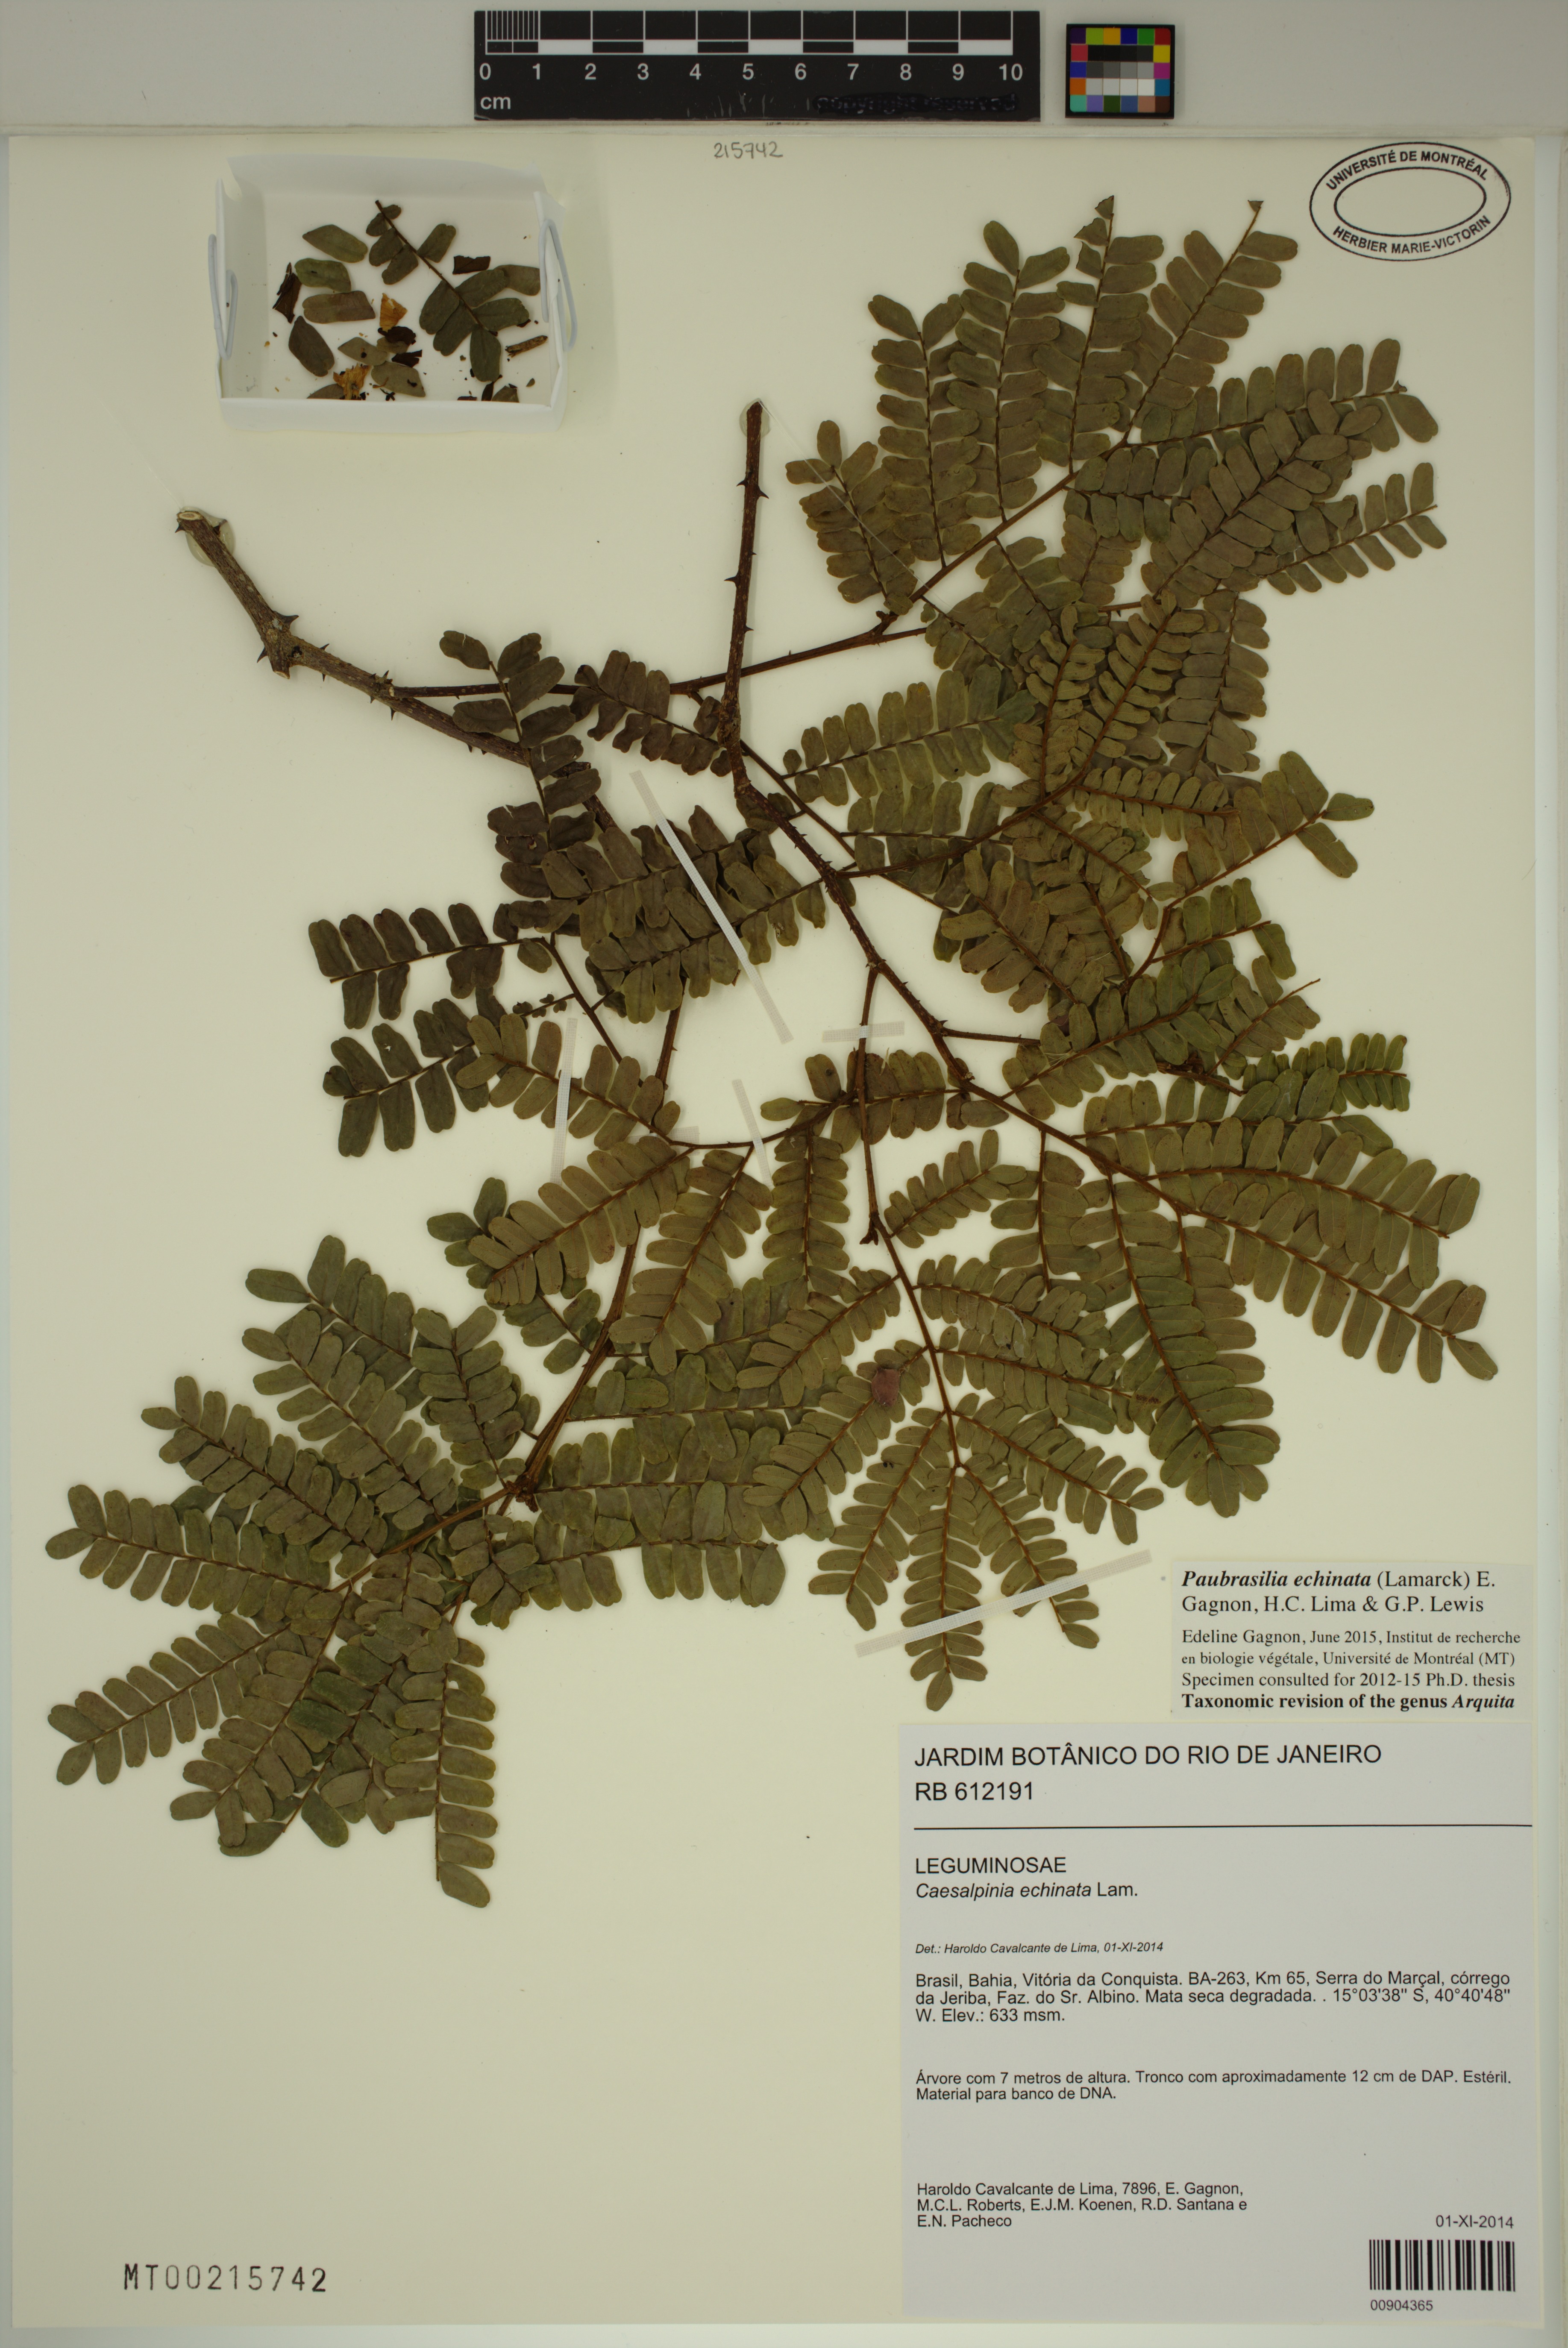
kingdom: Plantae
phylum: Tracheophyta
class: Magnoliopsida
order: Fabales
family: Fabaceae
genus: Paubrasilia
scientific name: Paubrasilia echinata
